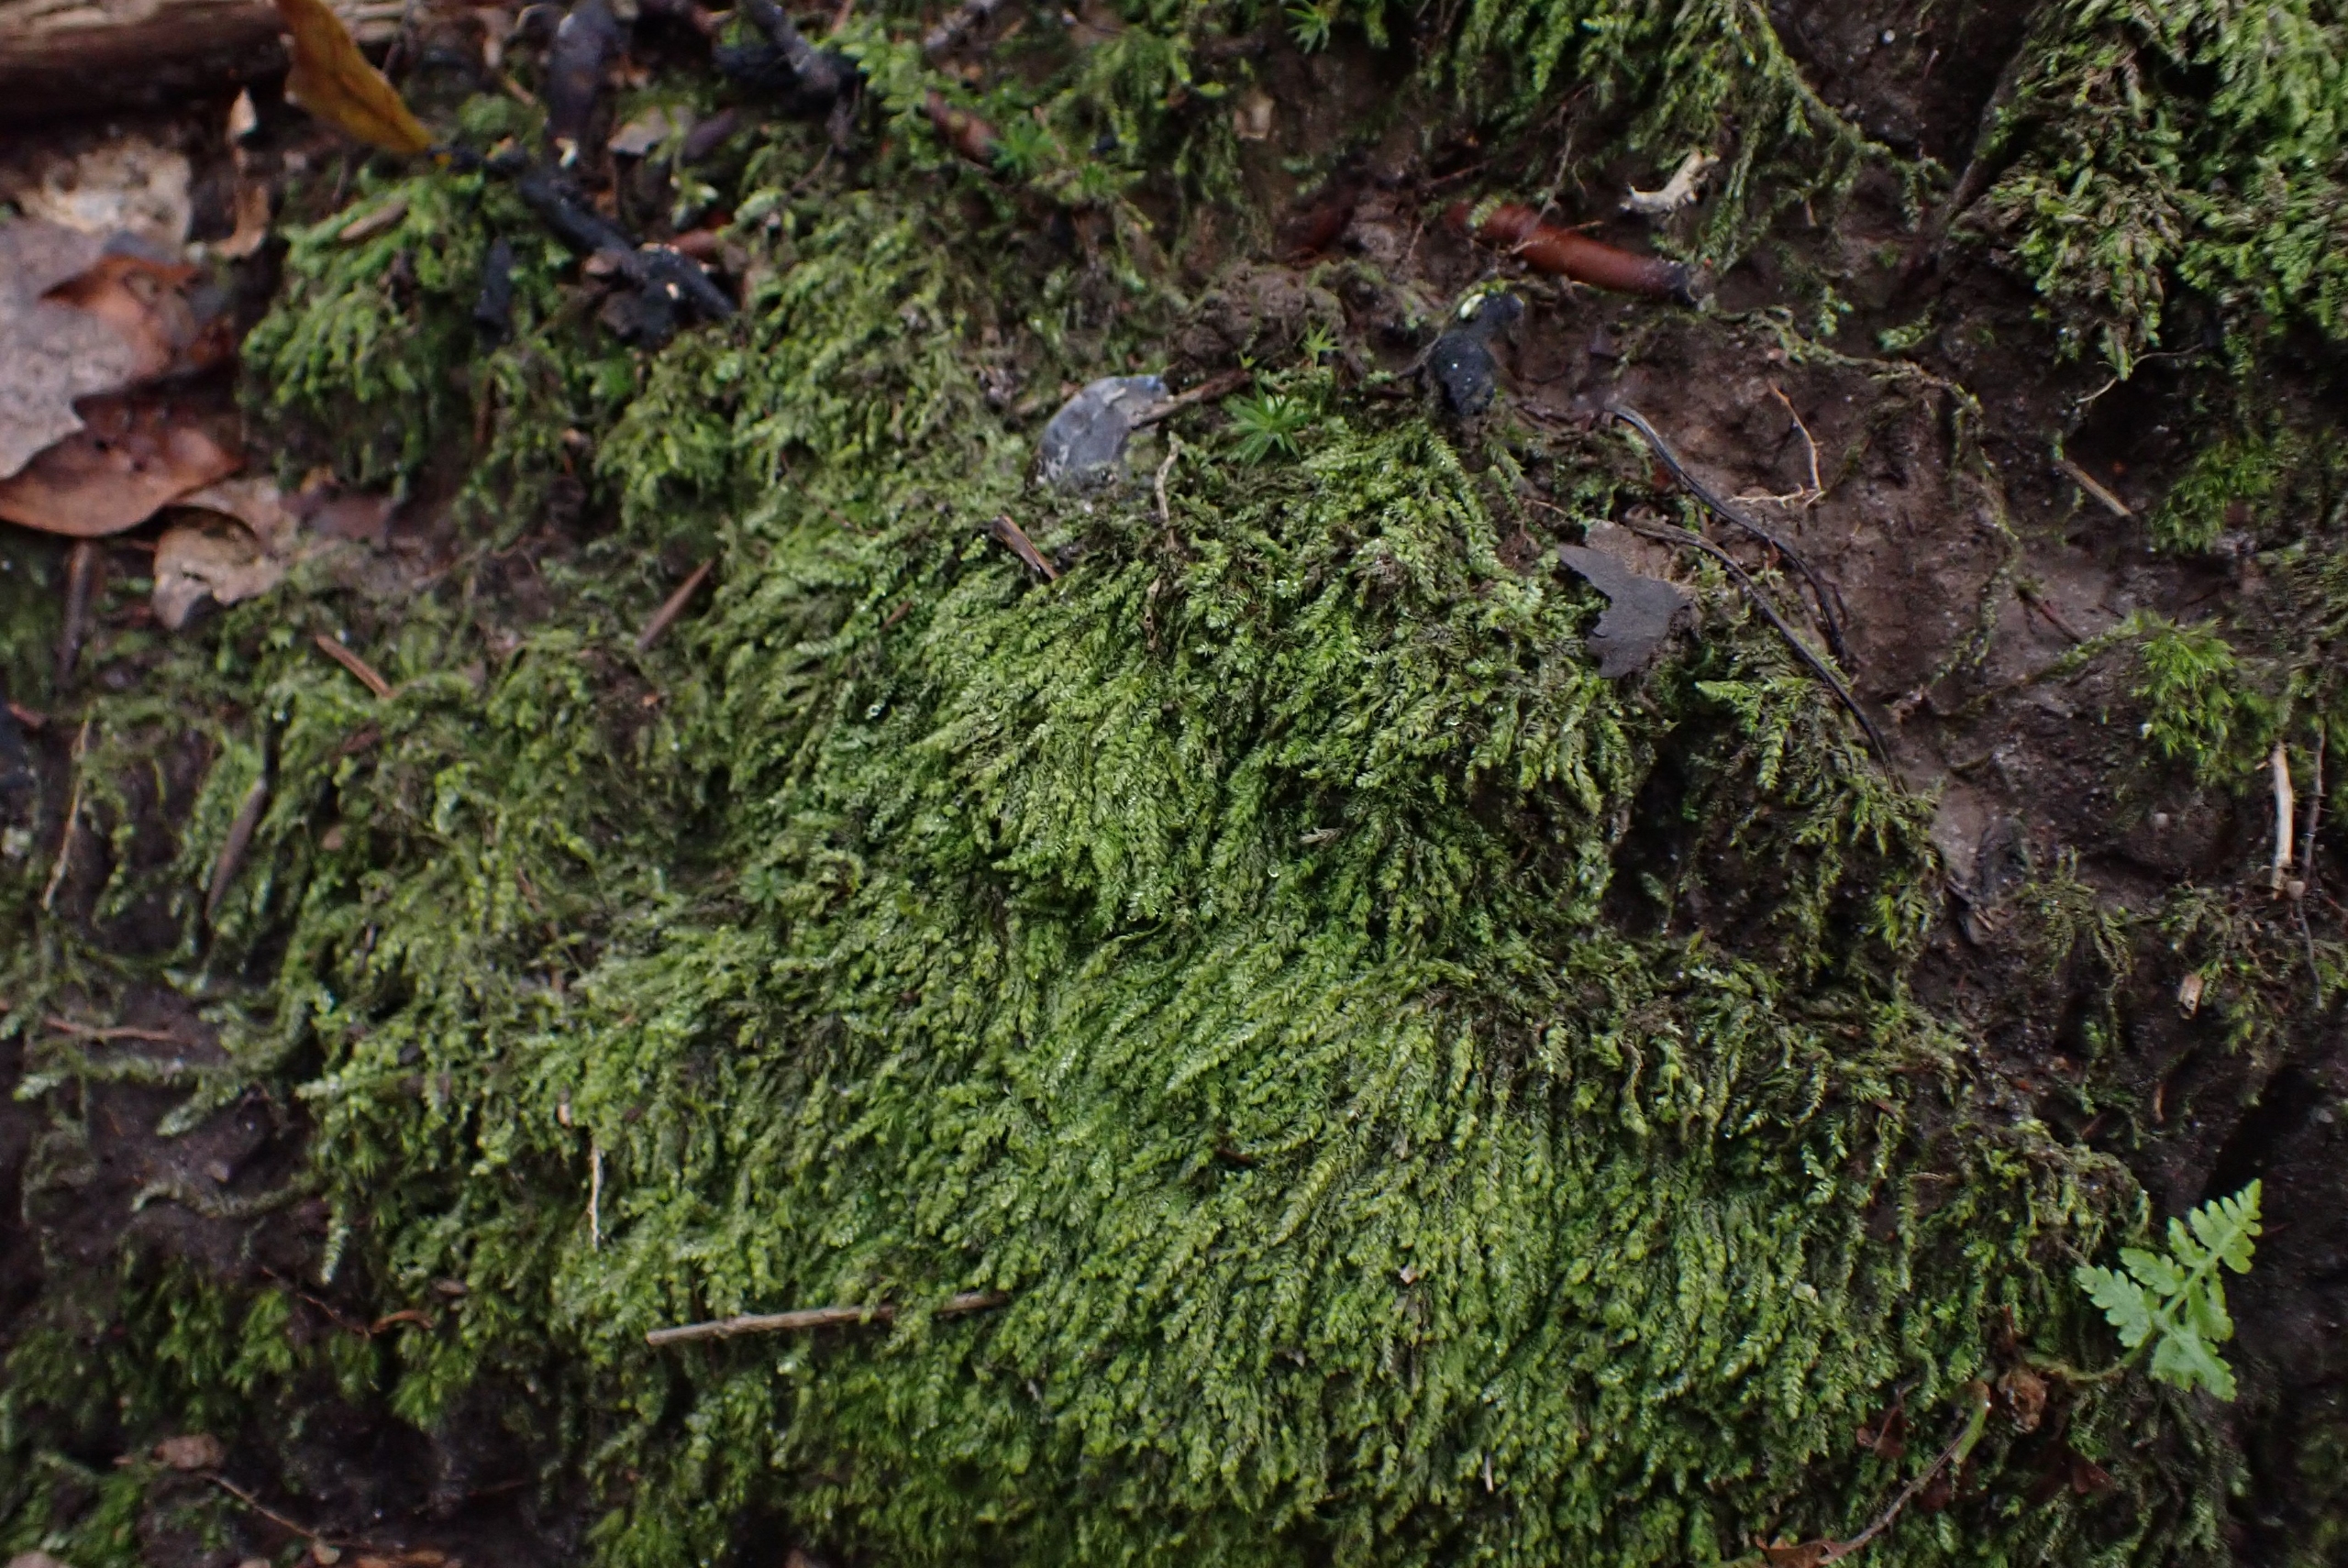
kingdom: Plantae
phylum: Bryophyta
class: Bryopsida
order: Hypnales
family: Plagiotheciaceae
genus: Pseudotaxiphyllum
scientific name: Pseudotaxiphyllum elegans
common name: Skinnende ynglegren
